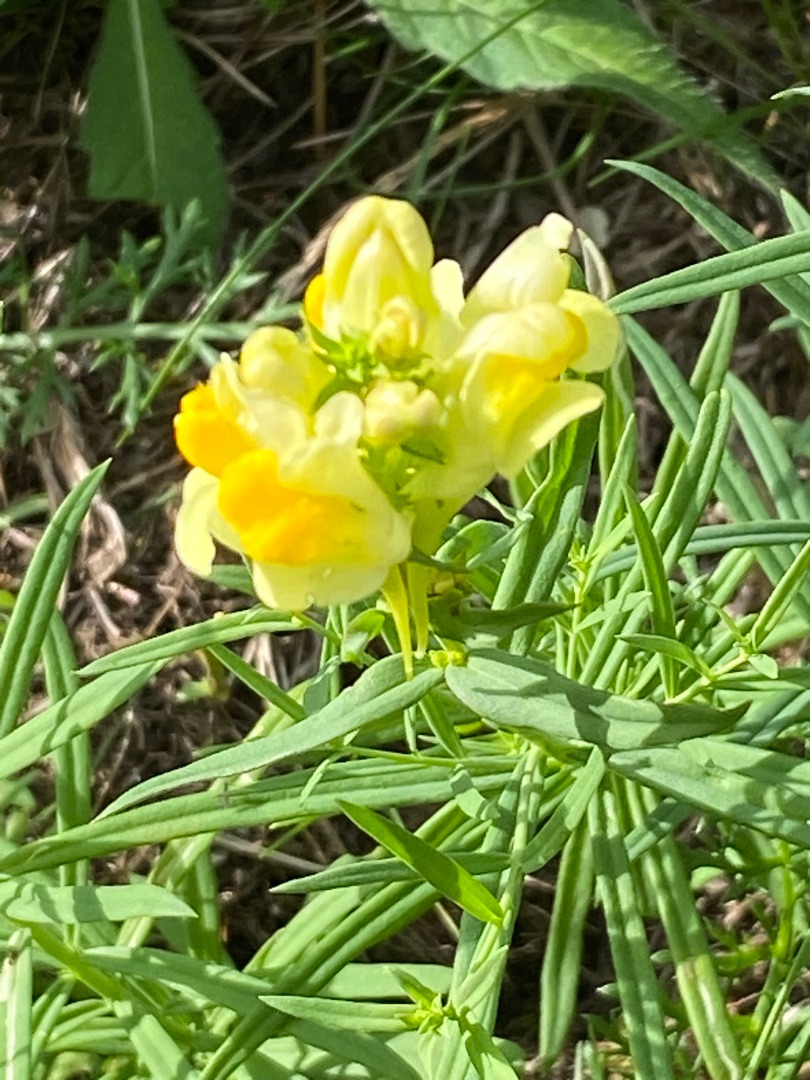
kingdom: Plantae
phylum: Tracheophyta
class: Magnoliopsida
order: Lamiales
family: Plantaginaceae
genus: Linaria
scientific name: Linaria vulgaris
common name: Almindelig torskemund
